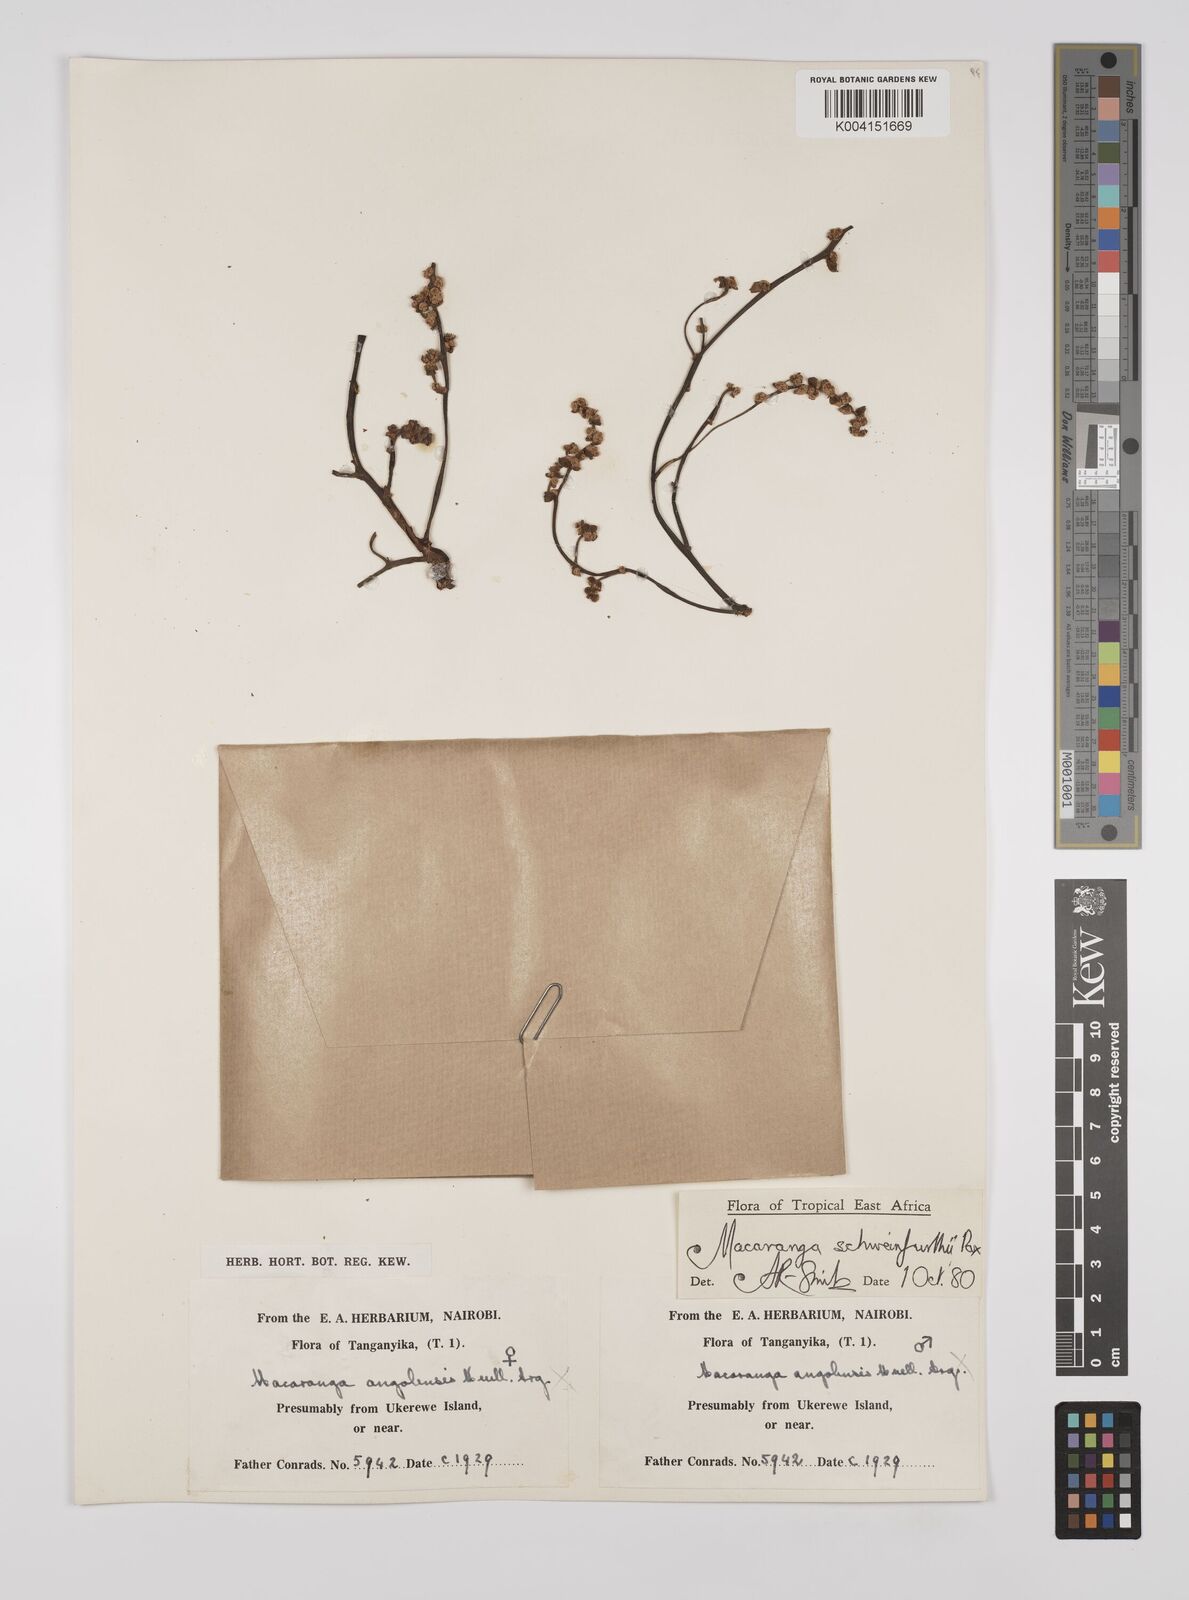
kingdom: Plantae
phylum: Tracheophyta
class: Magnoliopsida
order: Malpighiales
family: Euphorbiaceae
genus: Macaranga
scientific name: Macaranga schweinfurthii
